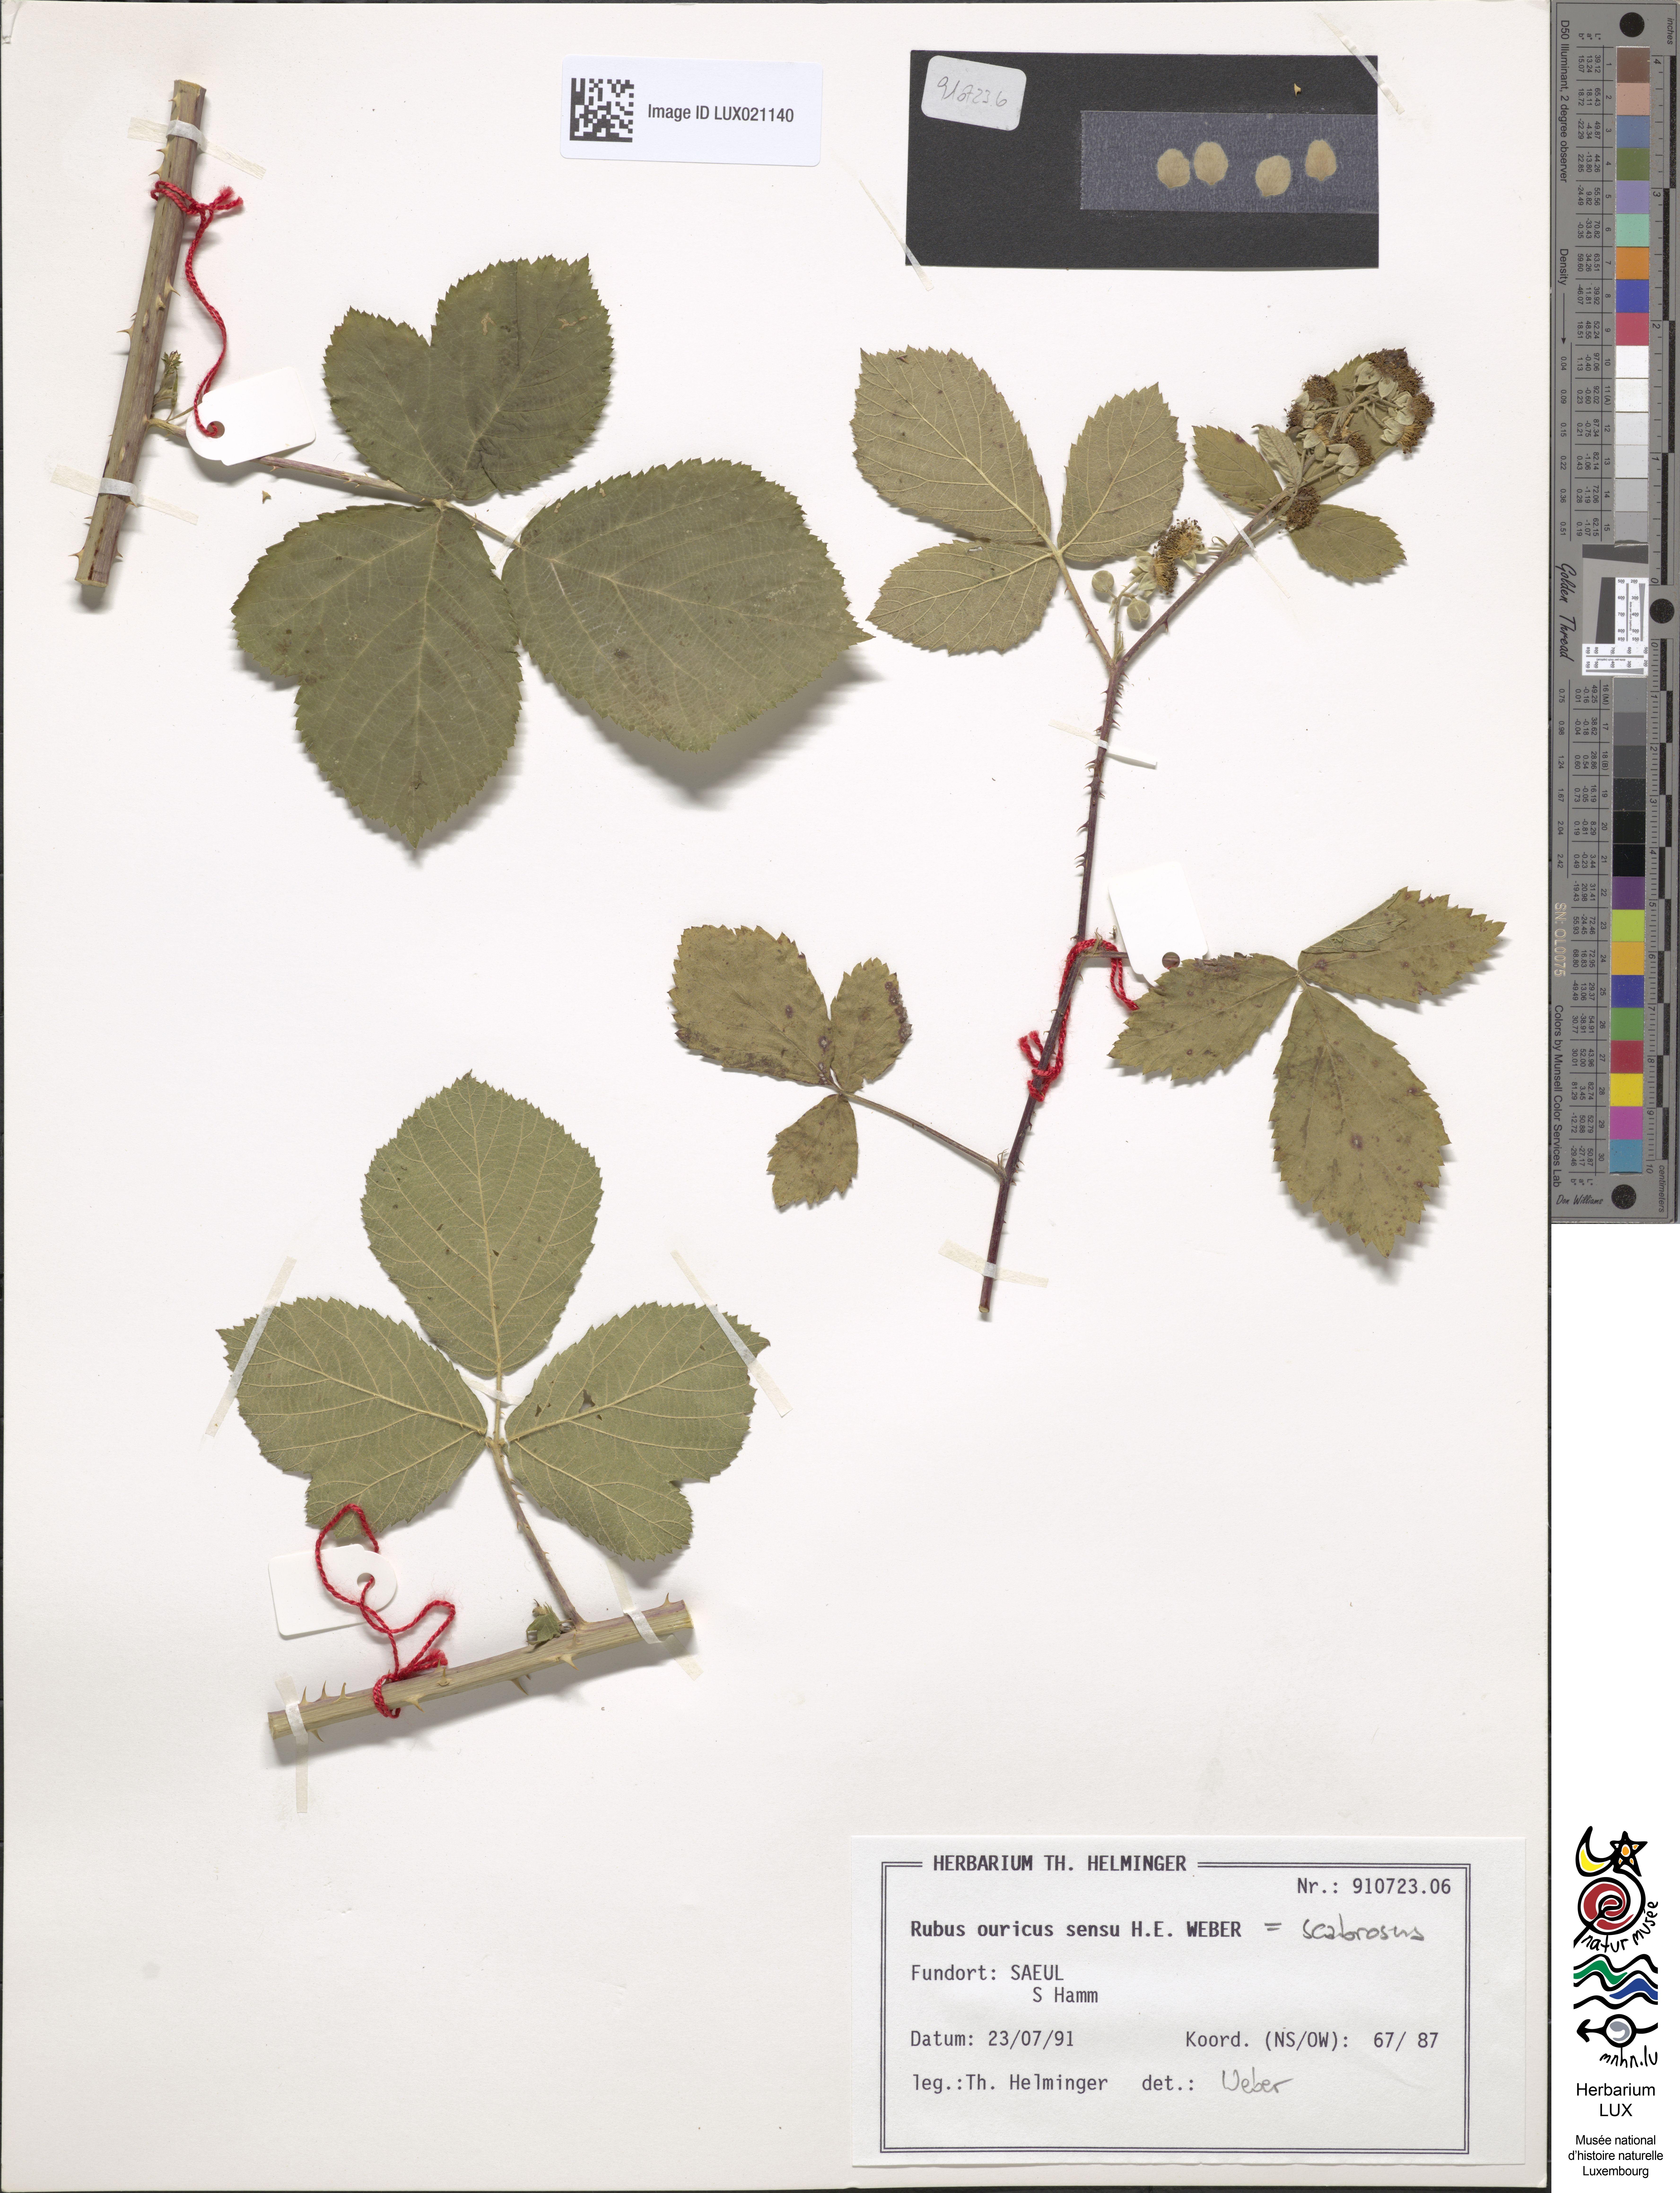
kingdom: Plantae
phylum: Tracheophyta
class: Magnoliopsida
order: Rosales
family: Rosaceae
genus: Rubus
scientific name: Rubus scabrosus
